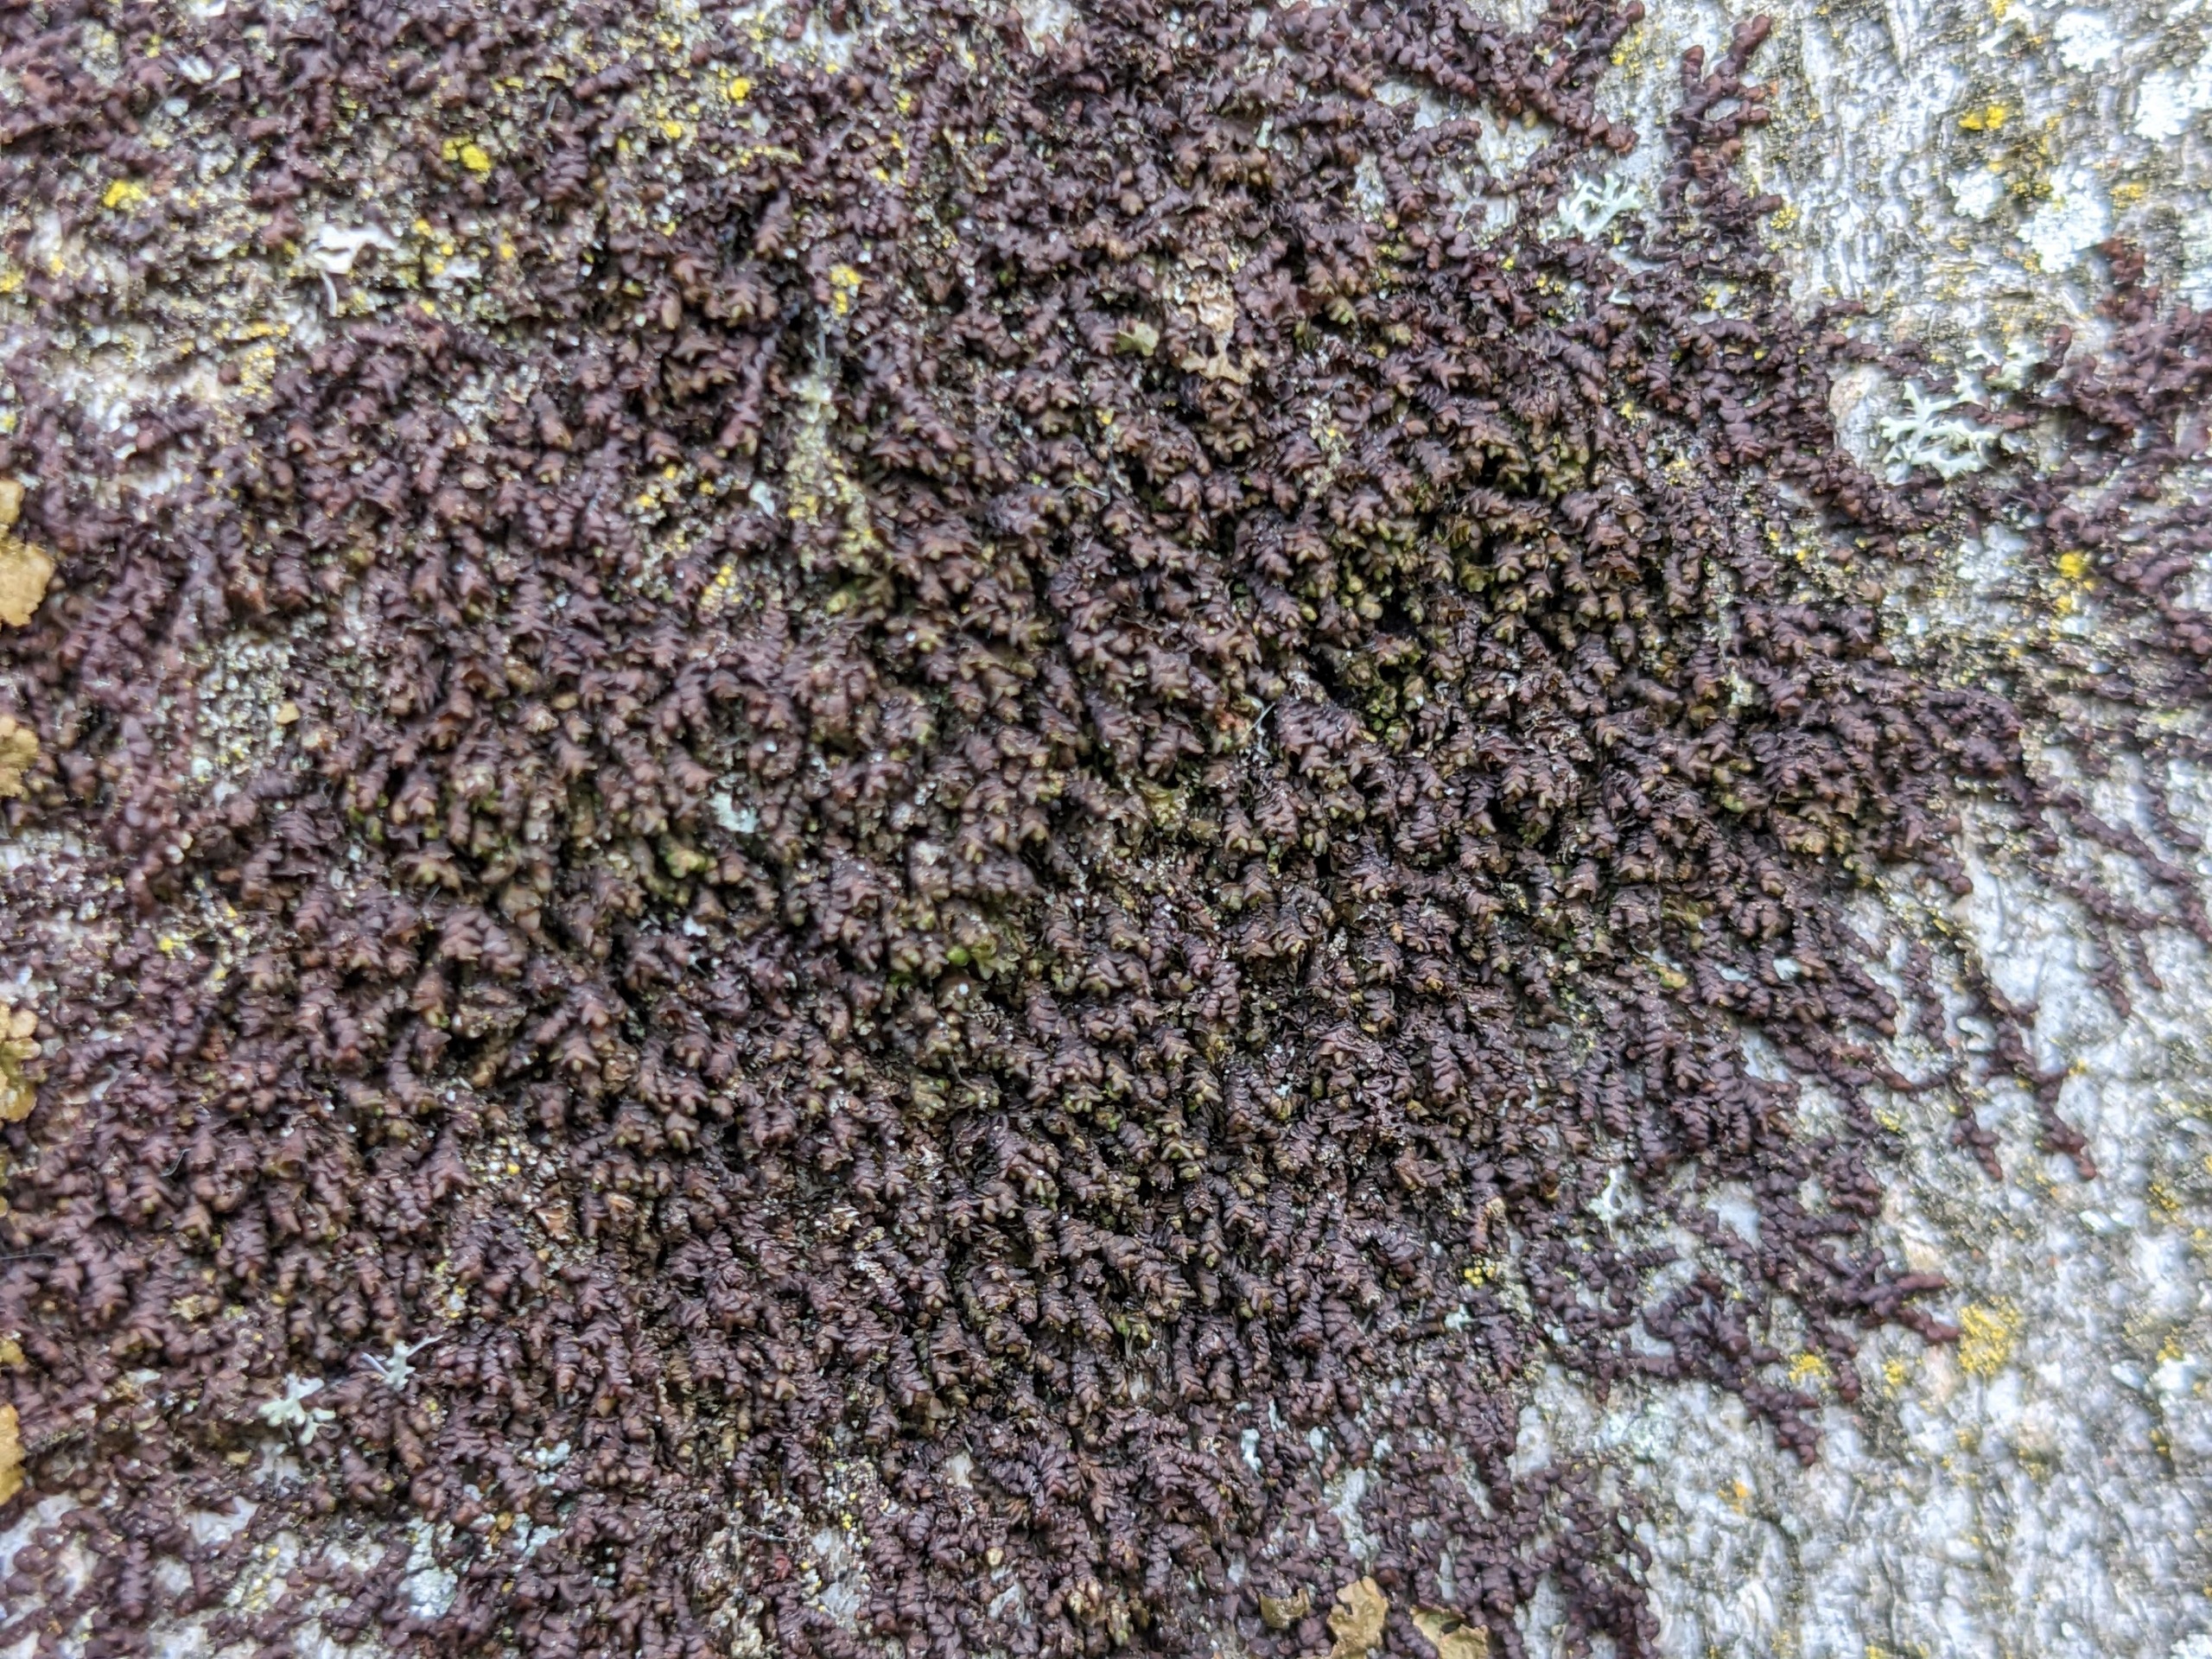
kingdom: Plantae
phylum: Marchantiophyta
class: Jungermanniopsida
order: Porellales
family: Frullaniaceae
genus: Frullania
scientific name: Frullania dilatata
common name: Mat bronzemos
